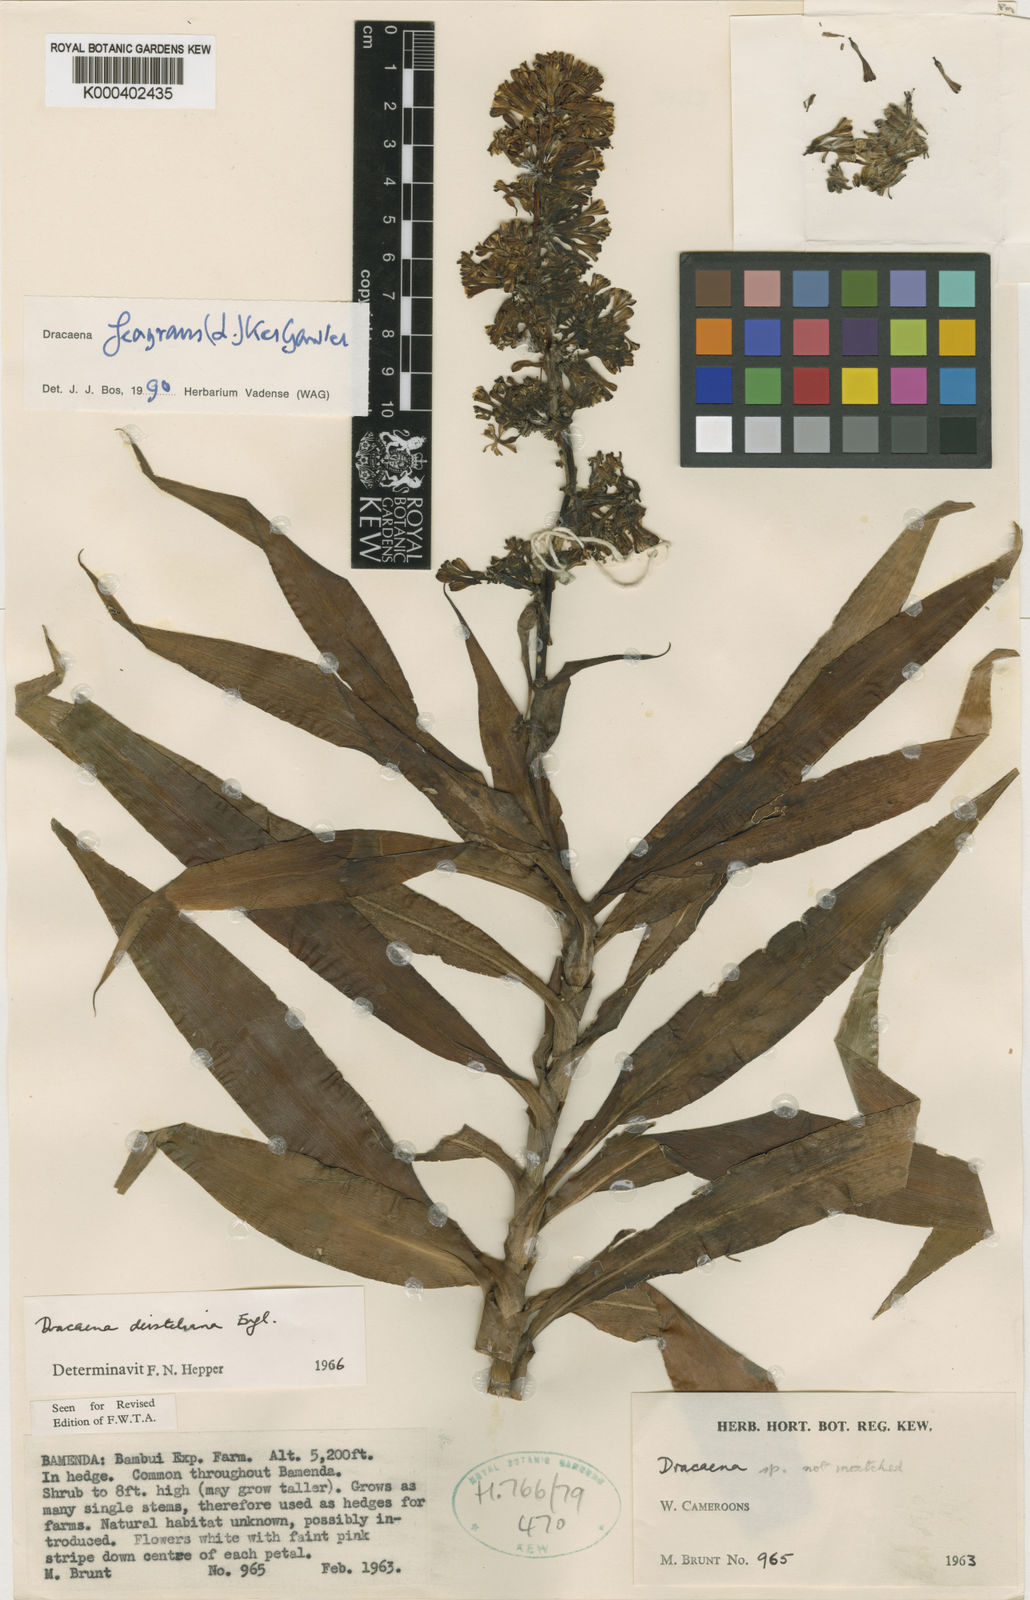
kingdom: Plantae
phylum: Tracheophyta
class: Liliopsida
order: Asparagales
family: Asparagaceae
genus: Dracaena
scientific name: Dracaena fragrans
